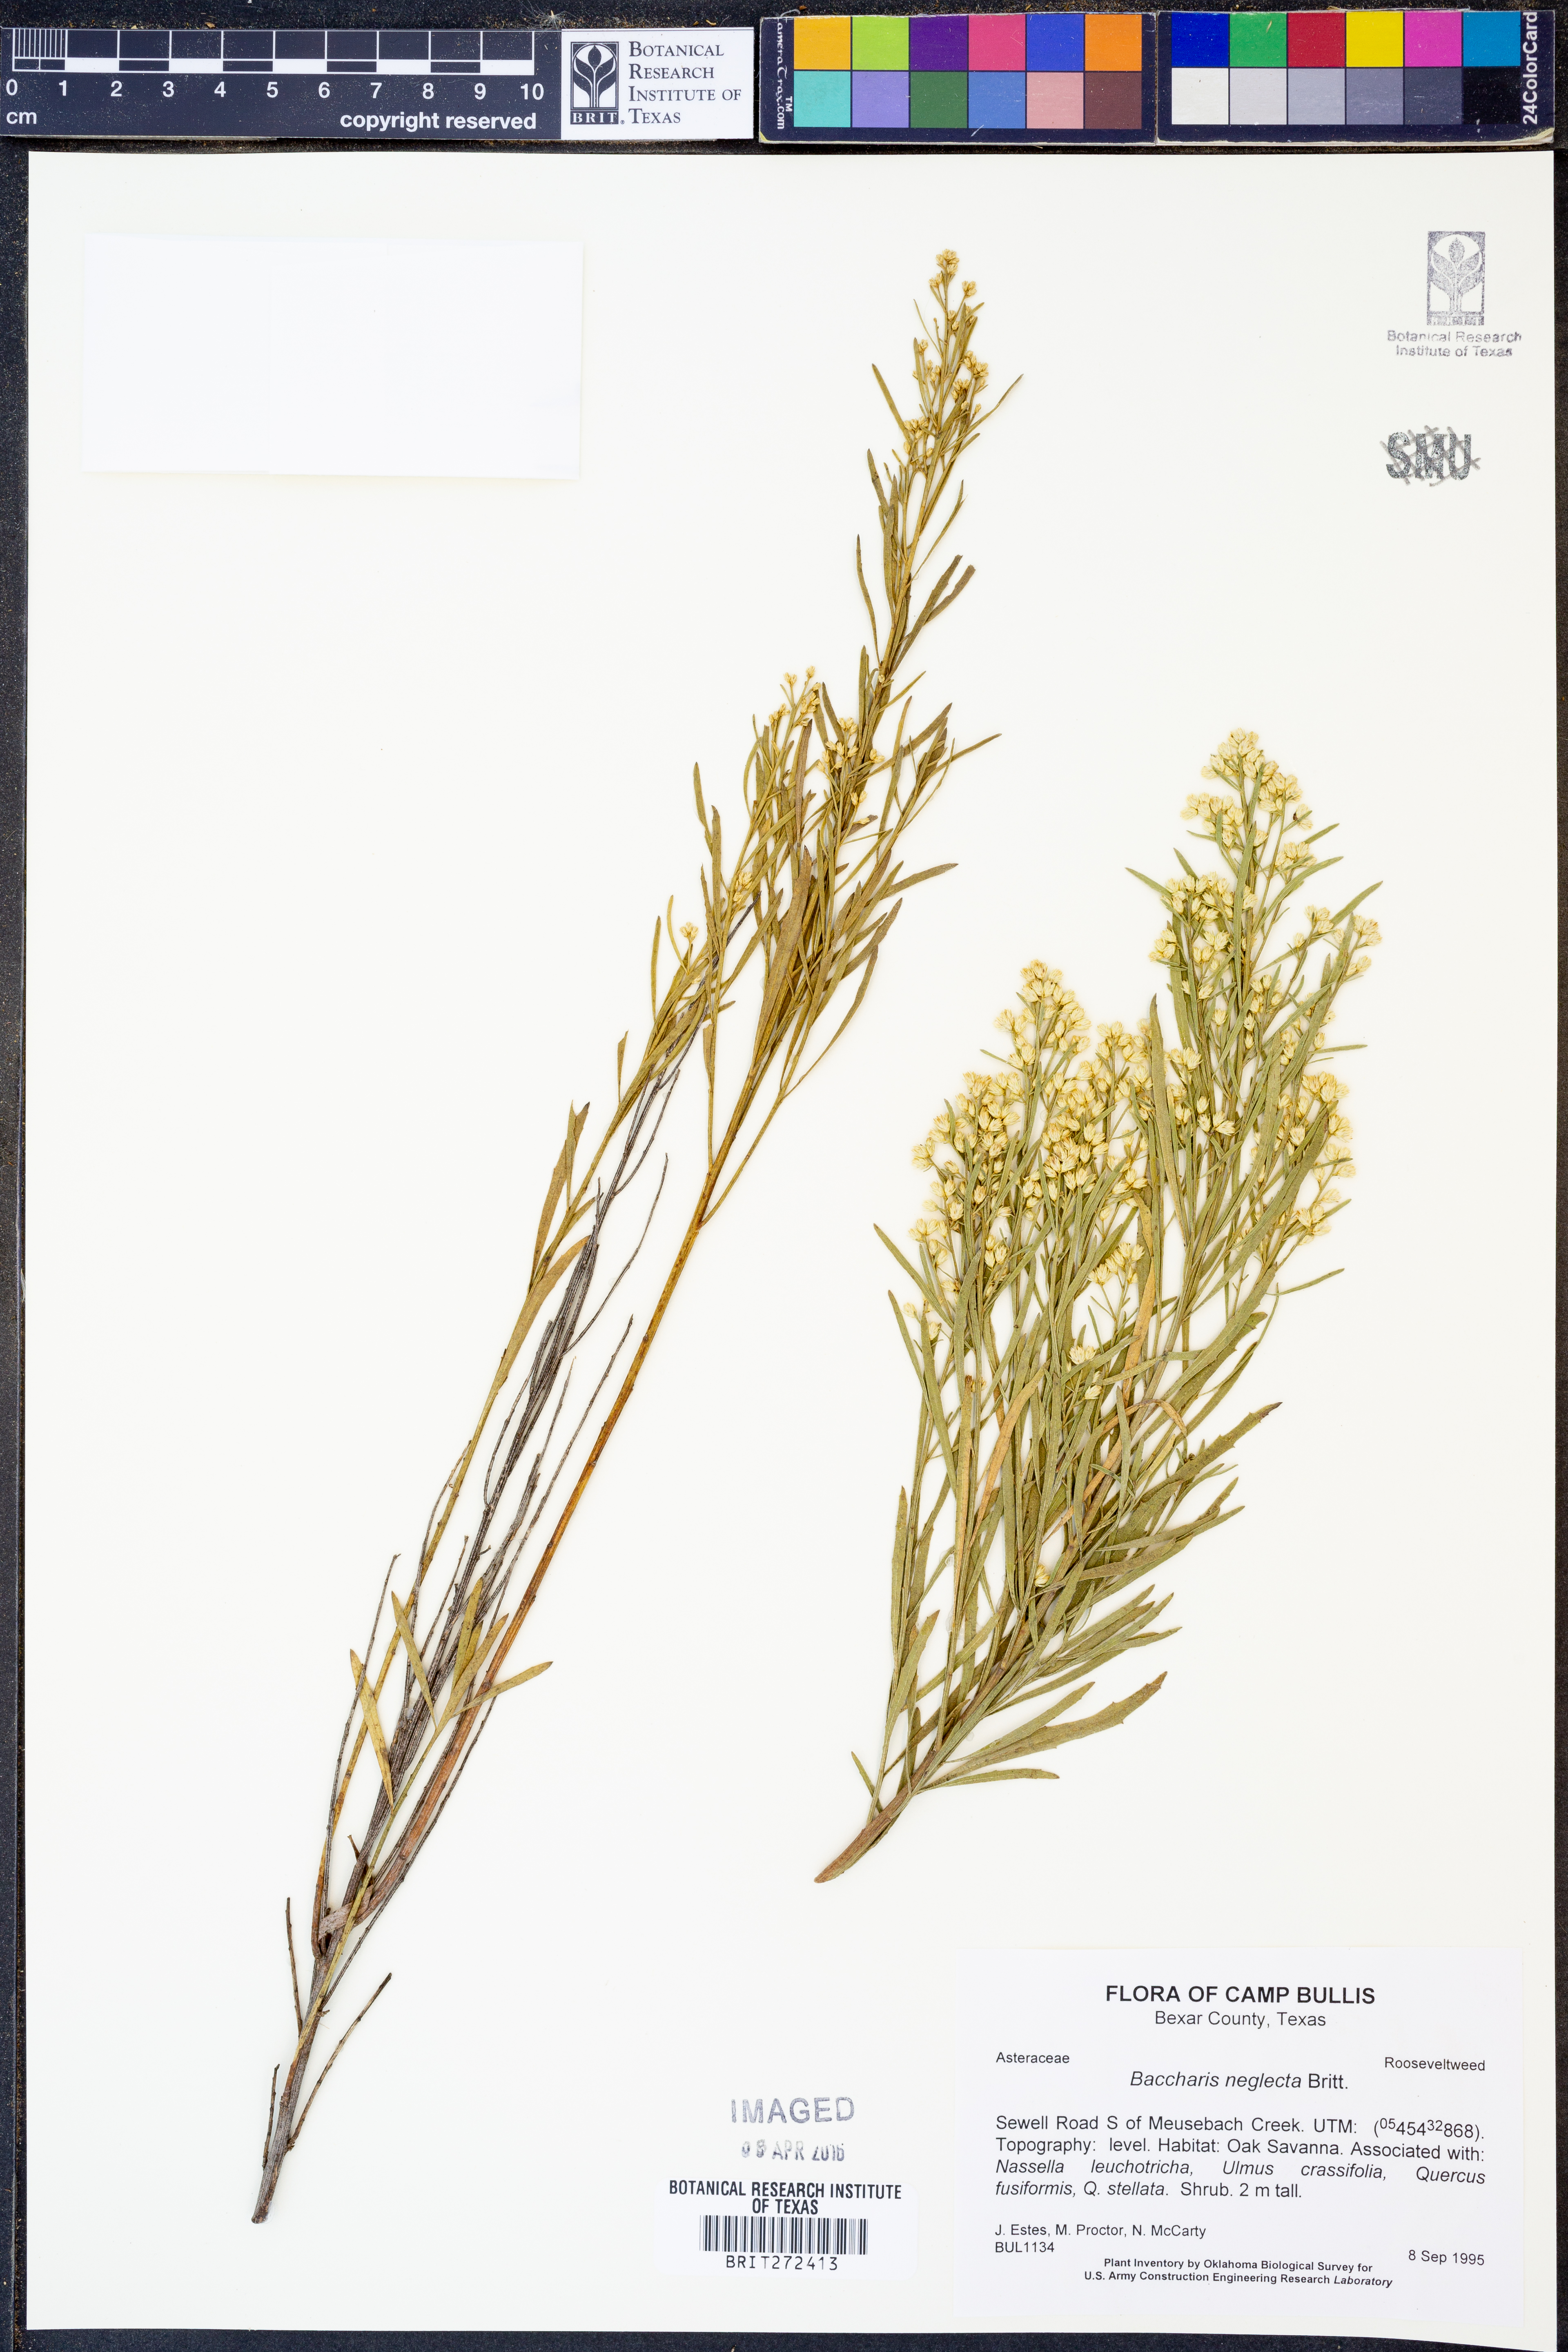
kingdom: Plantae
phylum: Tracheophyta
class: Magnoliopsida
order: Asterales
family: Asteraceae
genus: Baccharis
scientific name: Baccharis neglecta
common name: Roosevelt-weed
